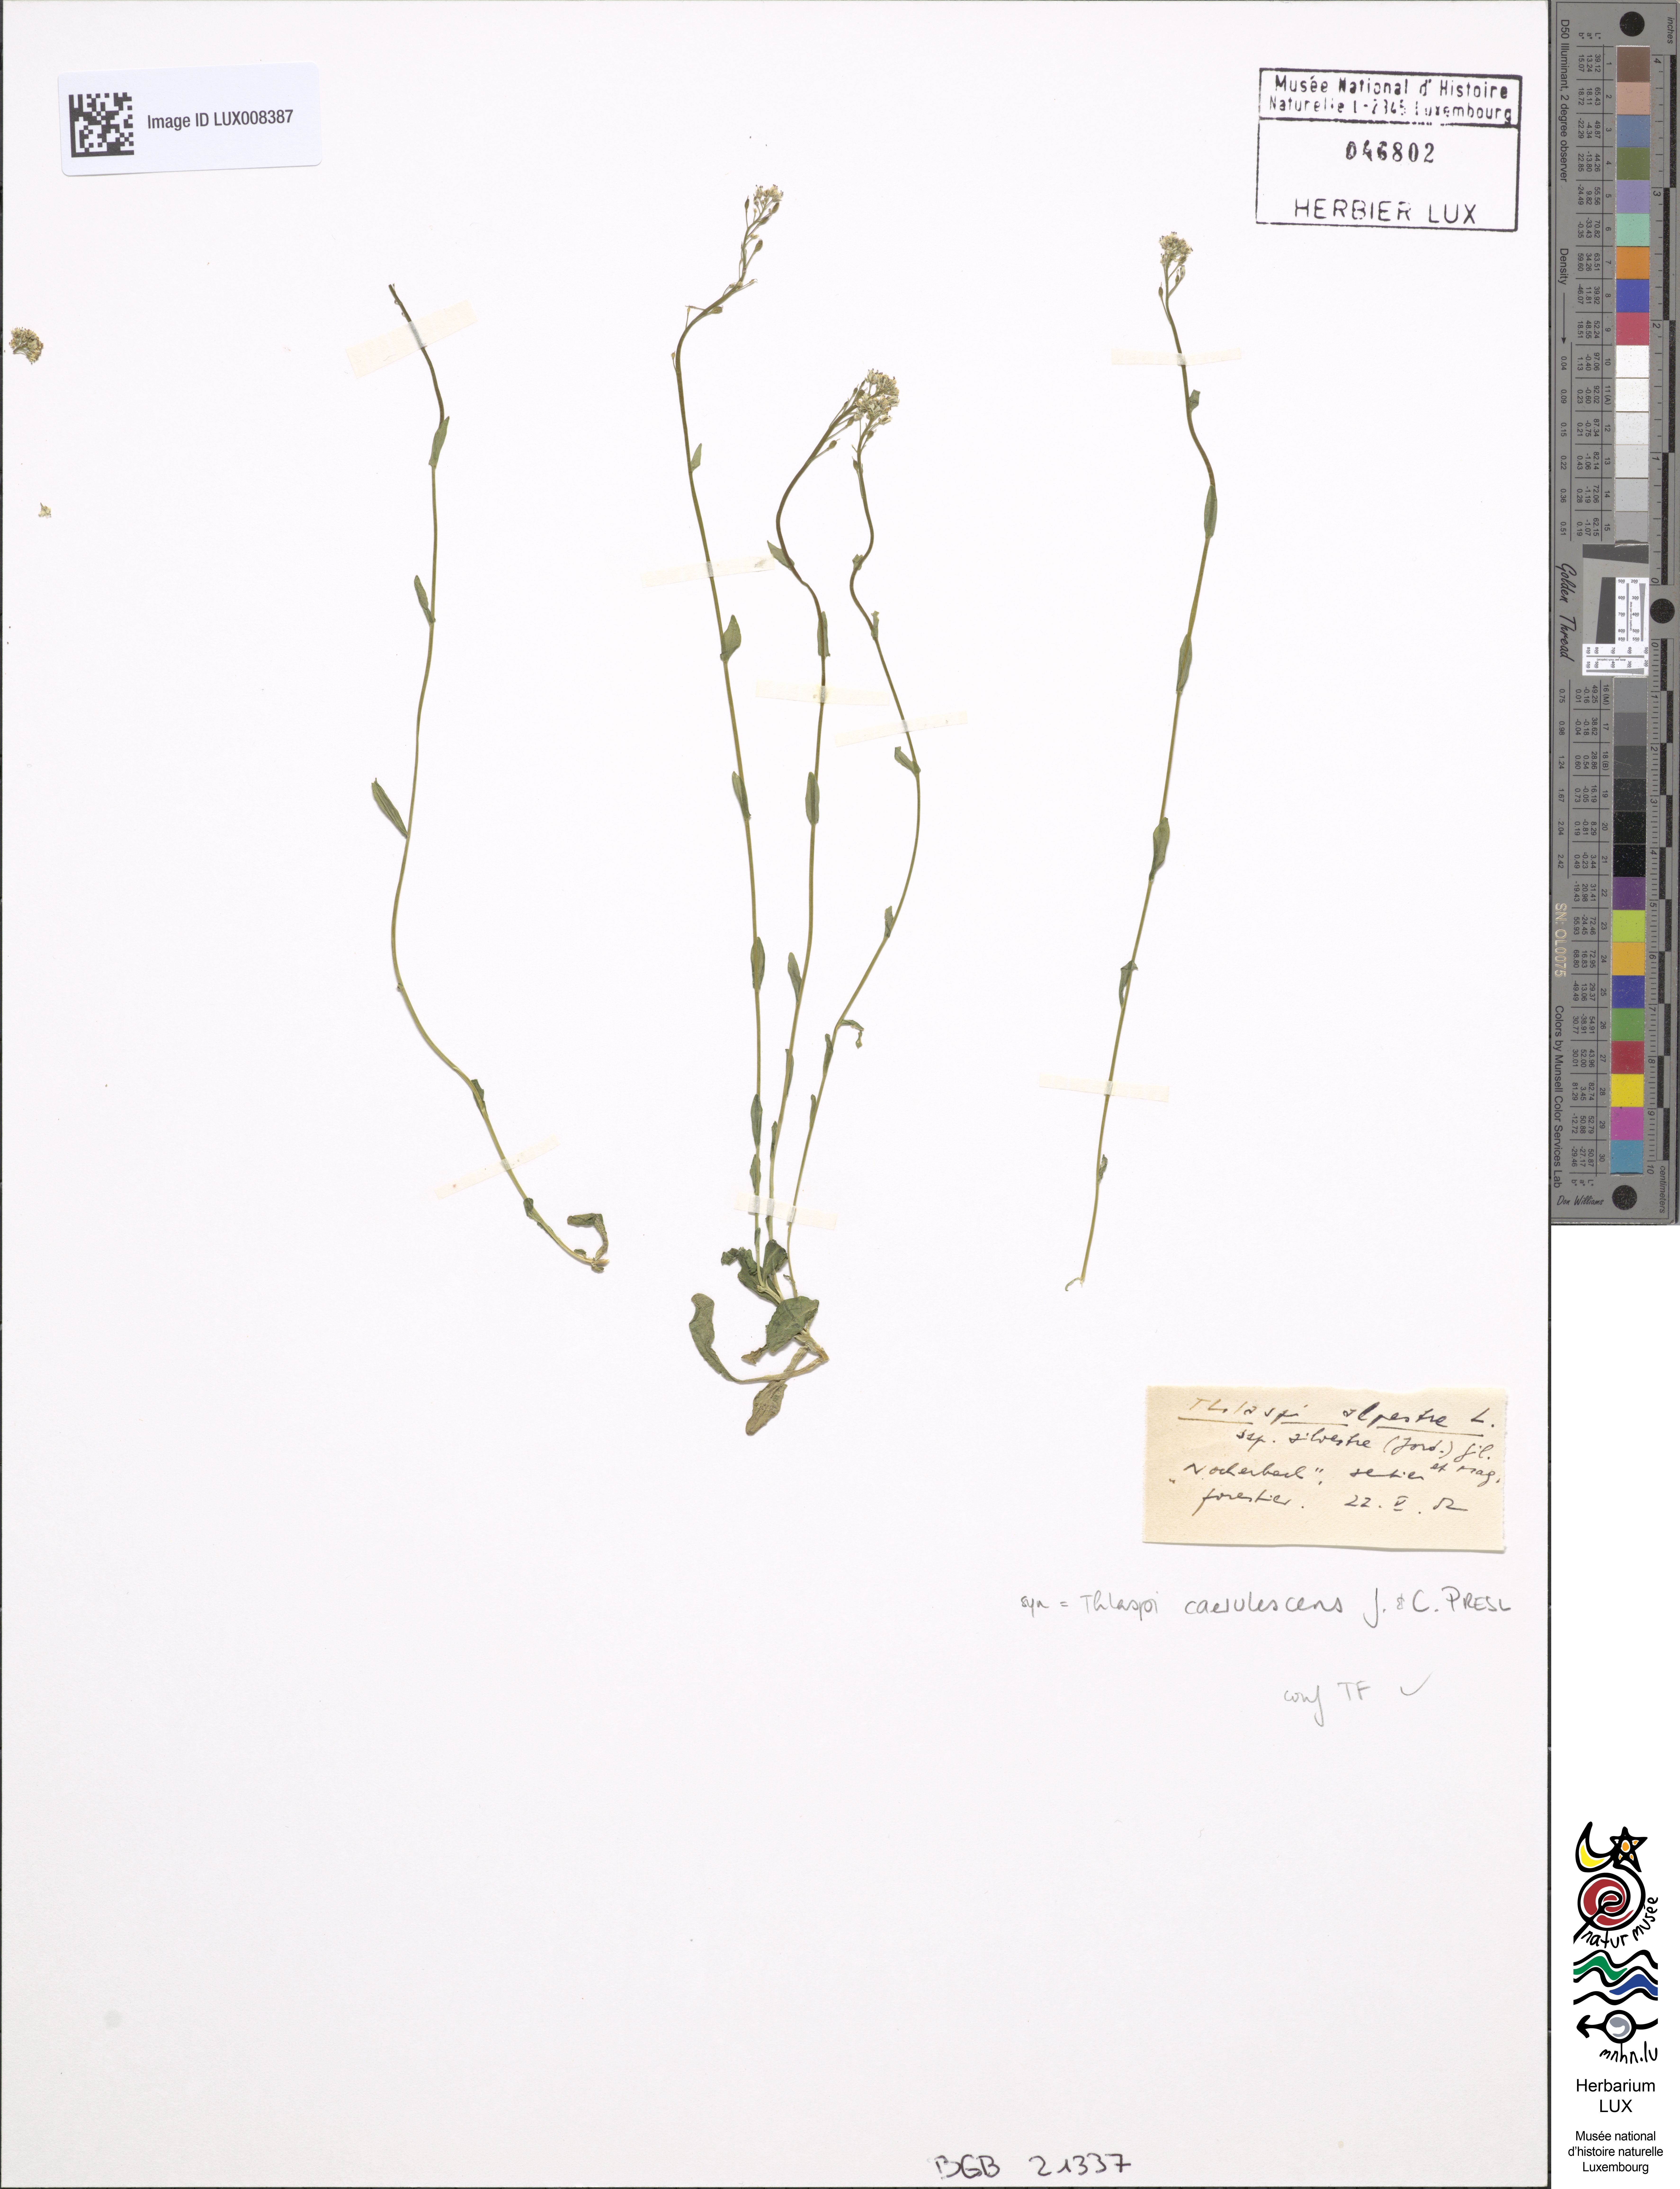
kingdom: Plantae
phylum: Tracheophyta
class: Magnoliopsida
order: Brassicales
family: Brassicaceae
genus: Noccaea
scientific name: Noccaea caerulescens
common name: Alpine pennycress
